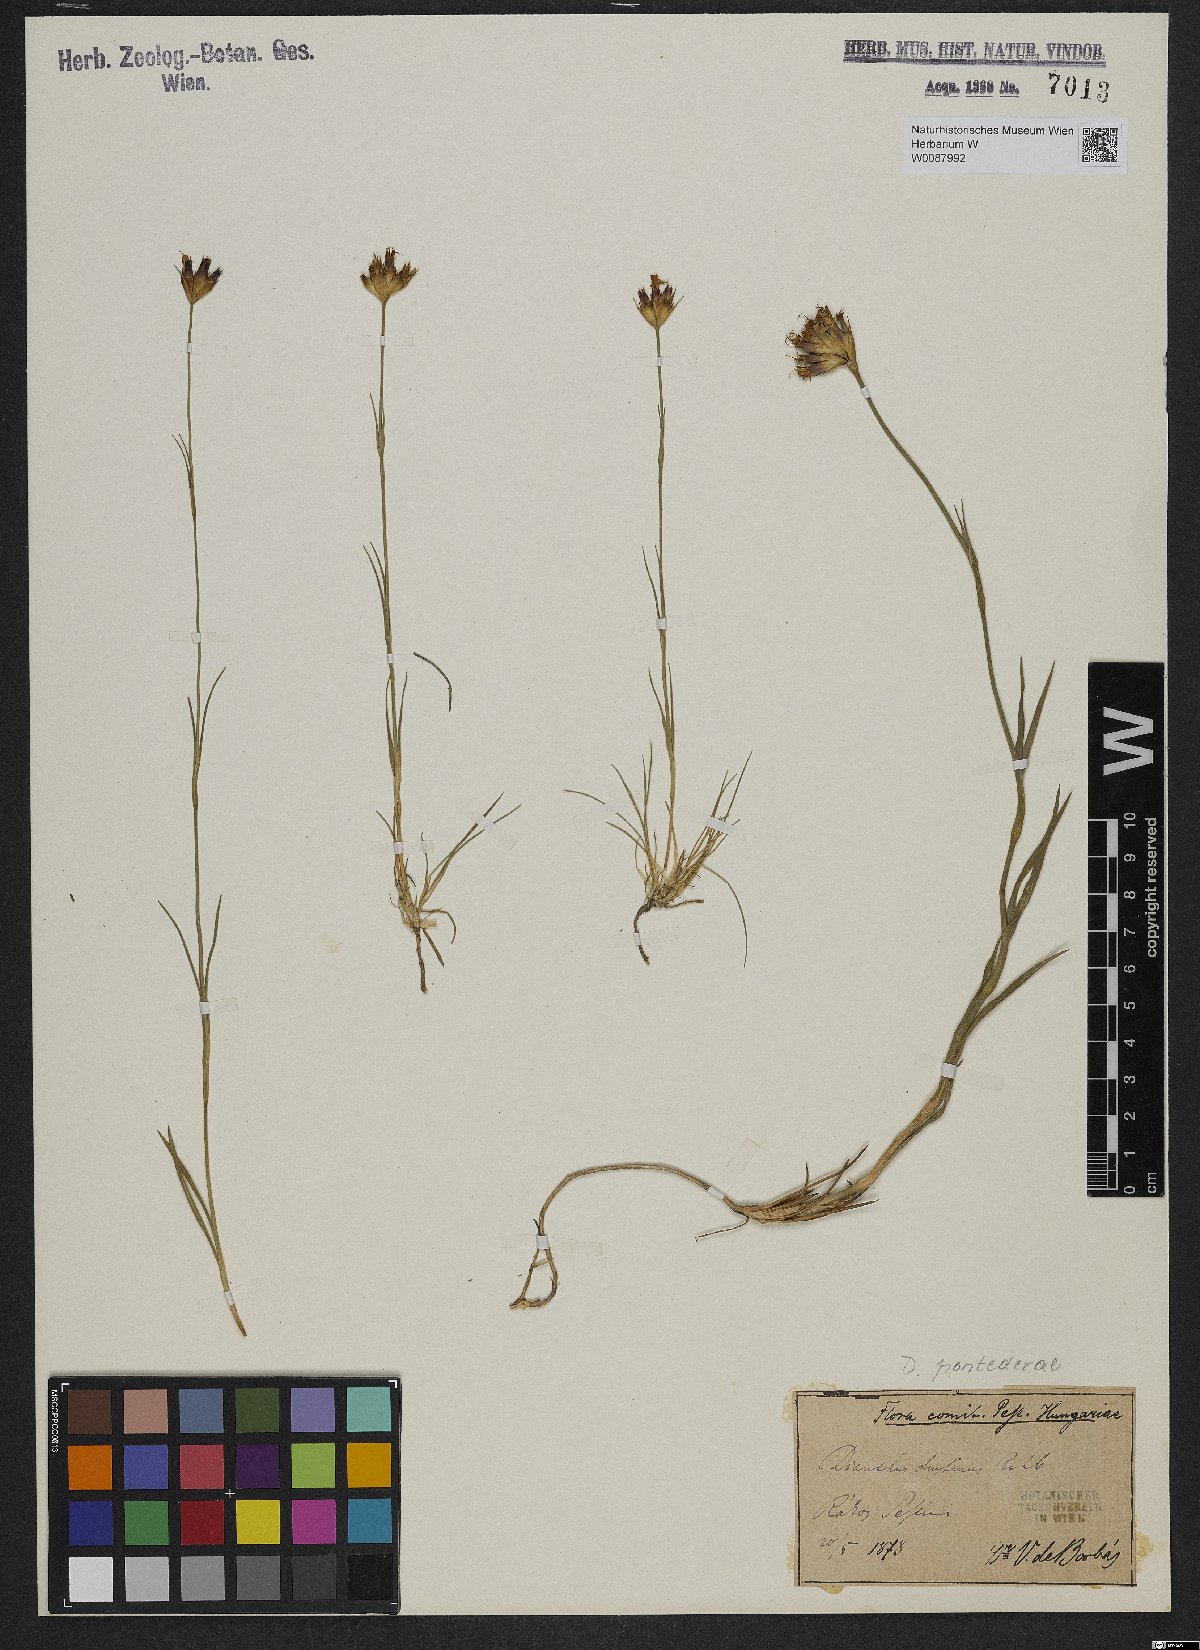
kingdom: Plantae
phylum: Tracheophyta
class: Magnoliopsida
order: Caryophyllales
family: Caryophyllaceae
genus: Dianthus
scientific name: Dianthus pontederae
